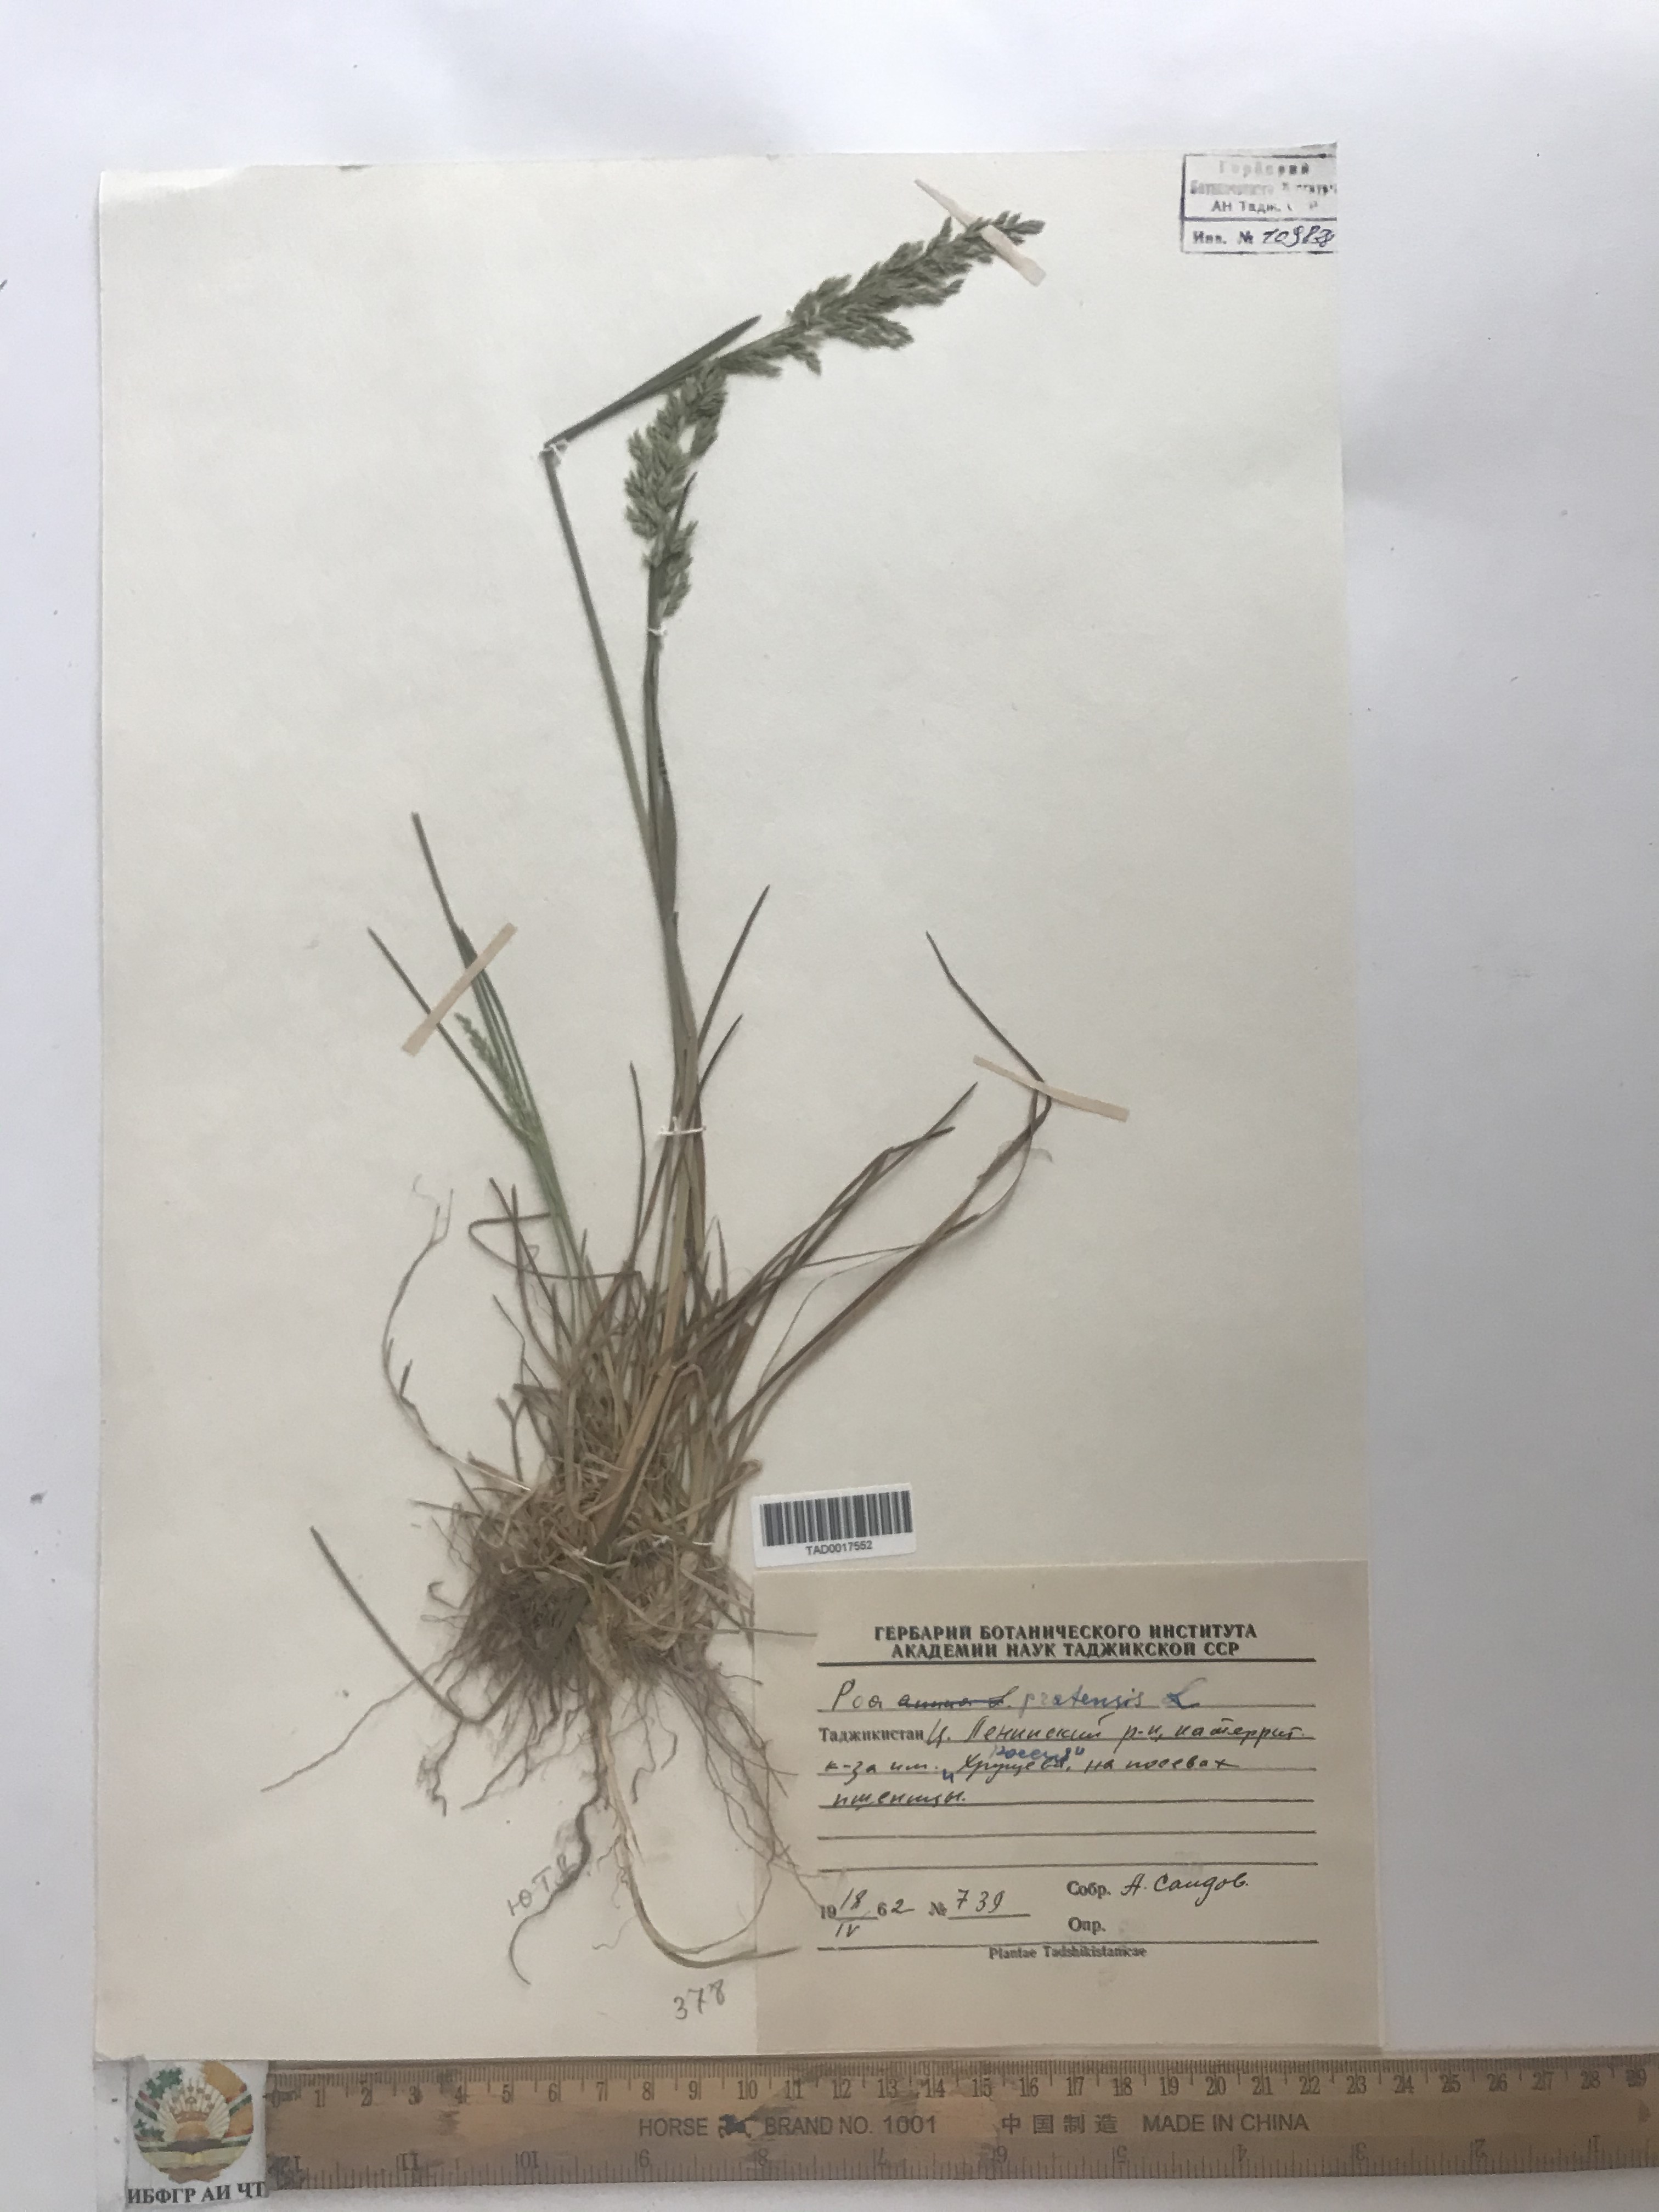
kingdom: Plantae
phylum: Tracheophyta
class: Liliopsida
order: Poales
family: Poaceae
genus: Poa
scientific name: Poa pratensis
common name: Kentucky bluegrass
